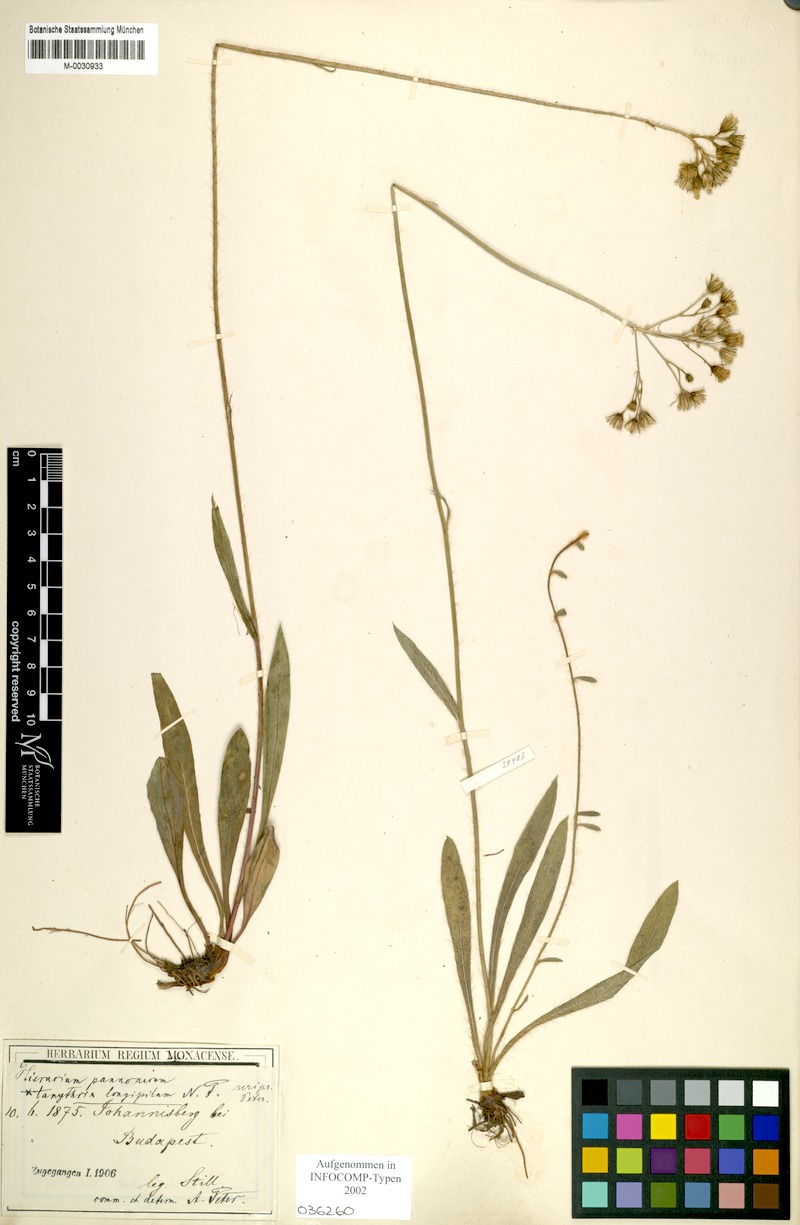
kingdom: Plantae
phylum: Tracheophyta
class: Magnoliopsida
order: Asterales
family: Asteraceae
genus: Pilosella
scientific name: Pilosella auriculoides
